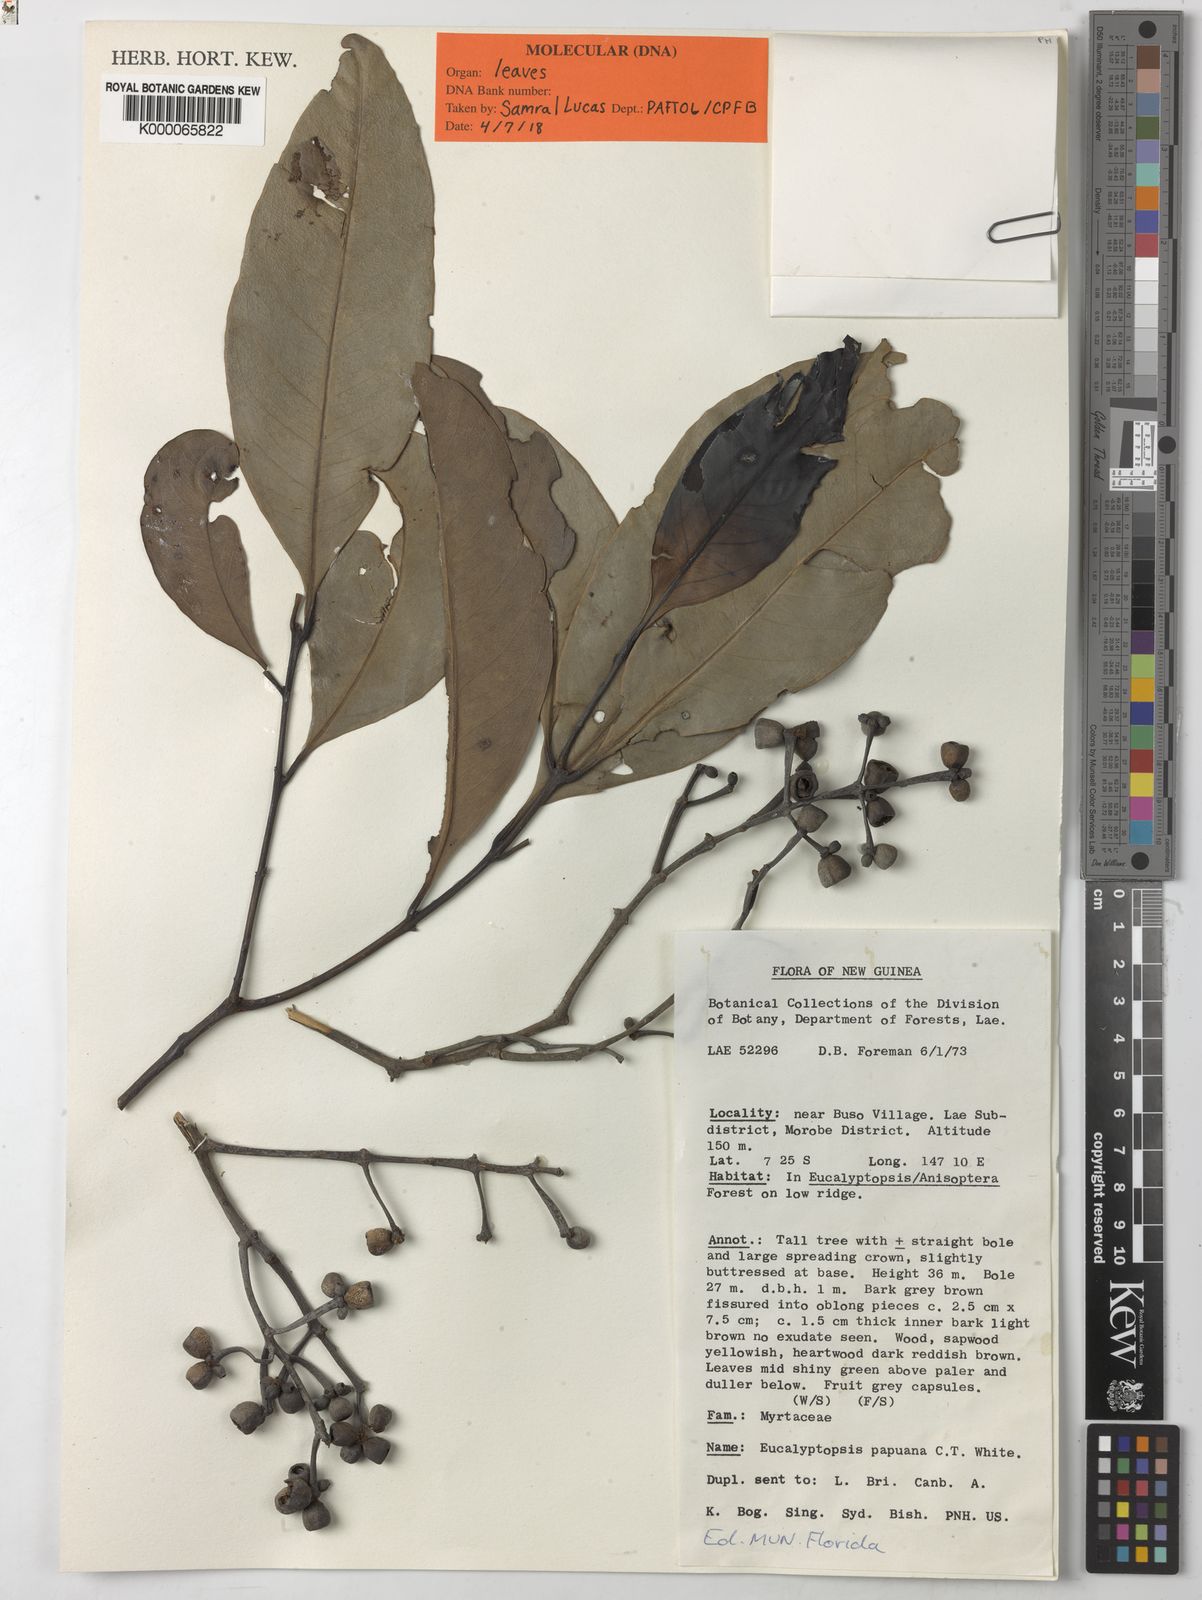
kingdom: Plantae
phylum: Tracheophyta
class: Magnoliopsida
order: Myrtales
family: Myrtaceae
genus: Eucalyptopsis
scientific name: Eucalyptopsis papuana
